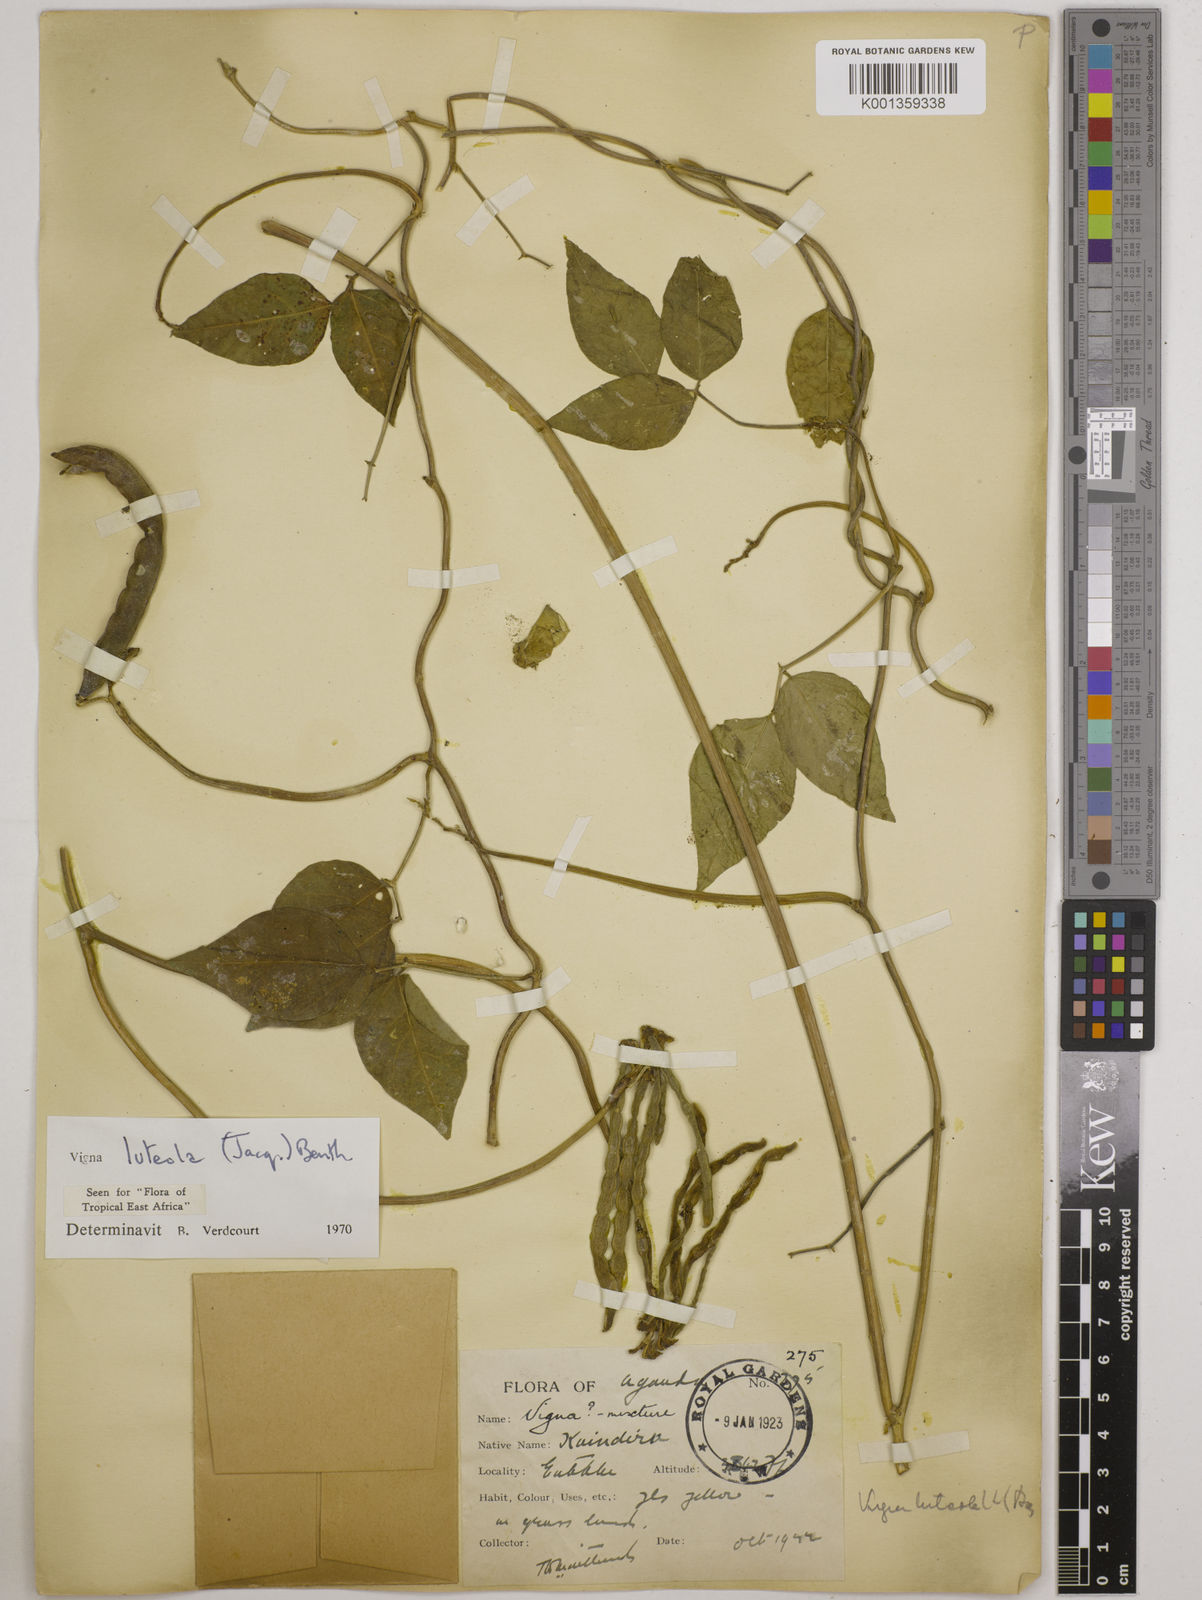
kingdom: Plantae
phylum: Tracheophyta
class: Magnoliopsida
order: Fabales
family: Fabaceae
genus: Vigna
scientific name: Vigna luteola
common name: Hairypod cowpea
